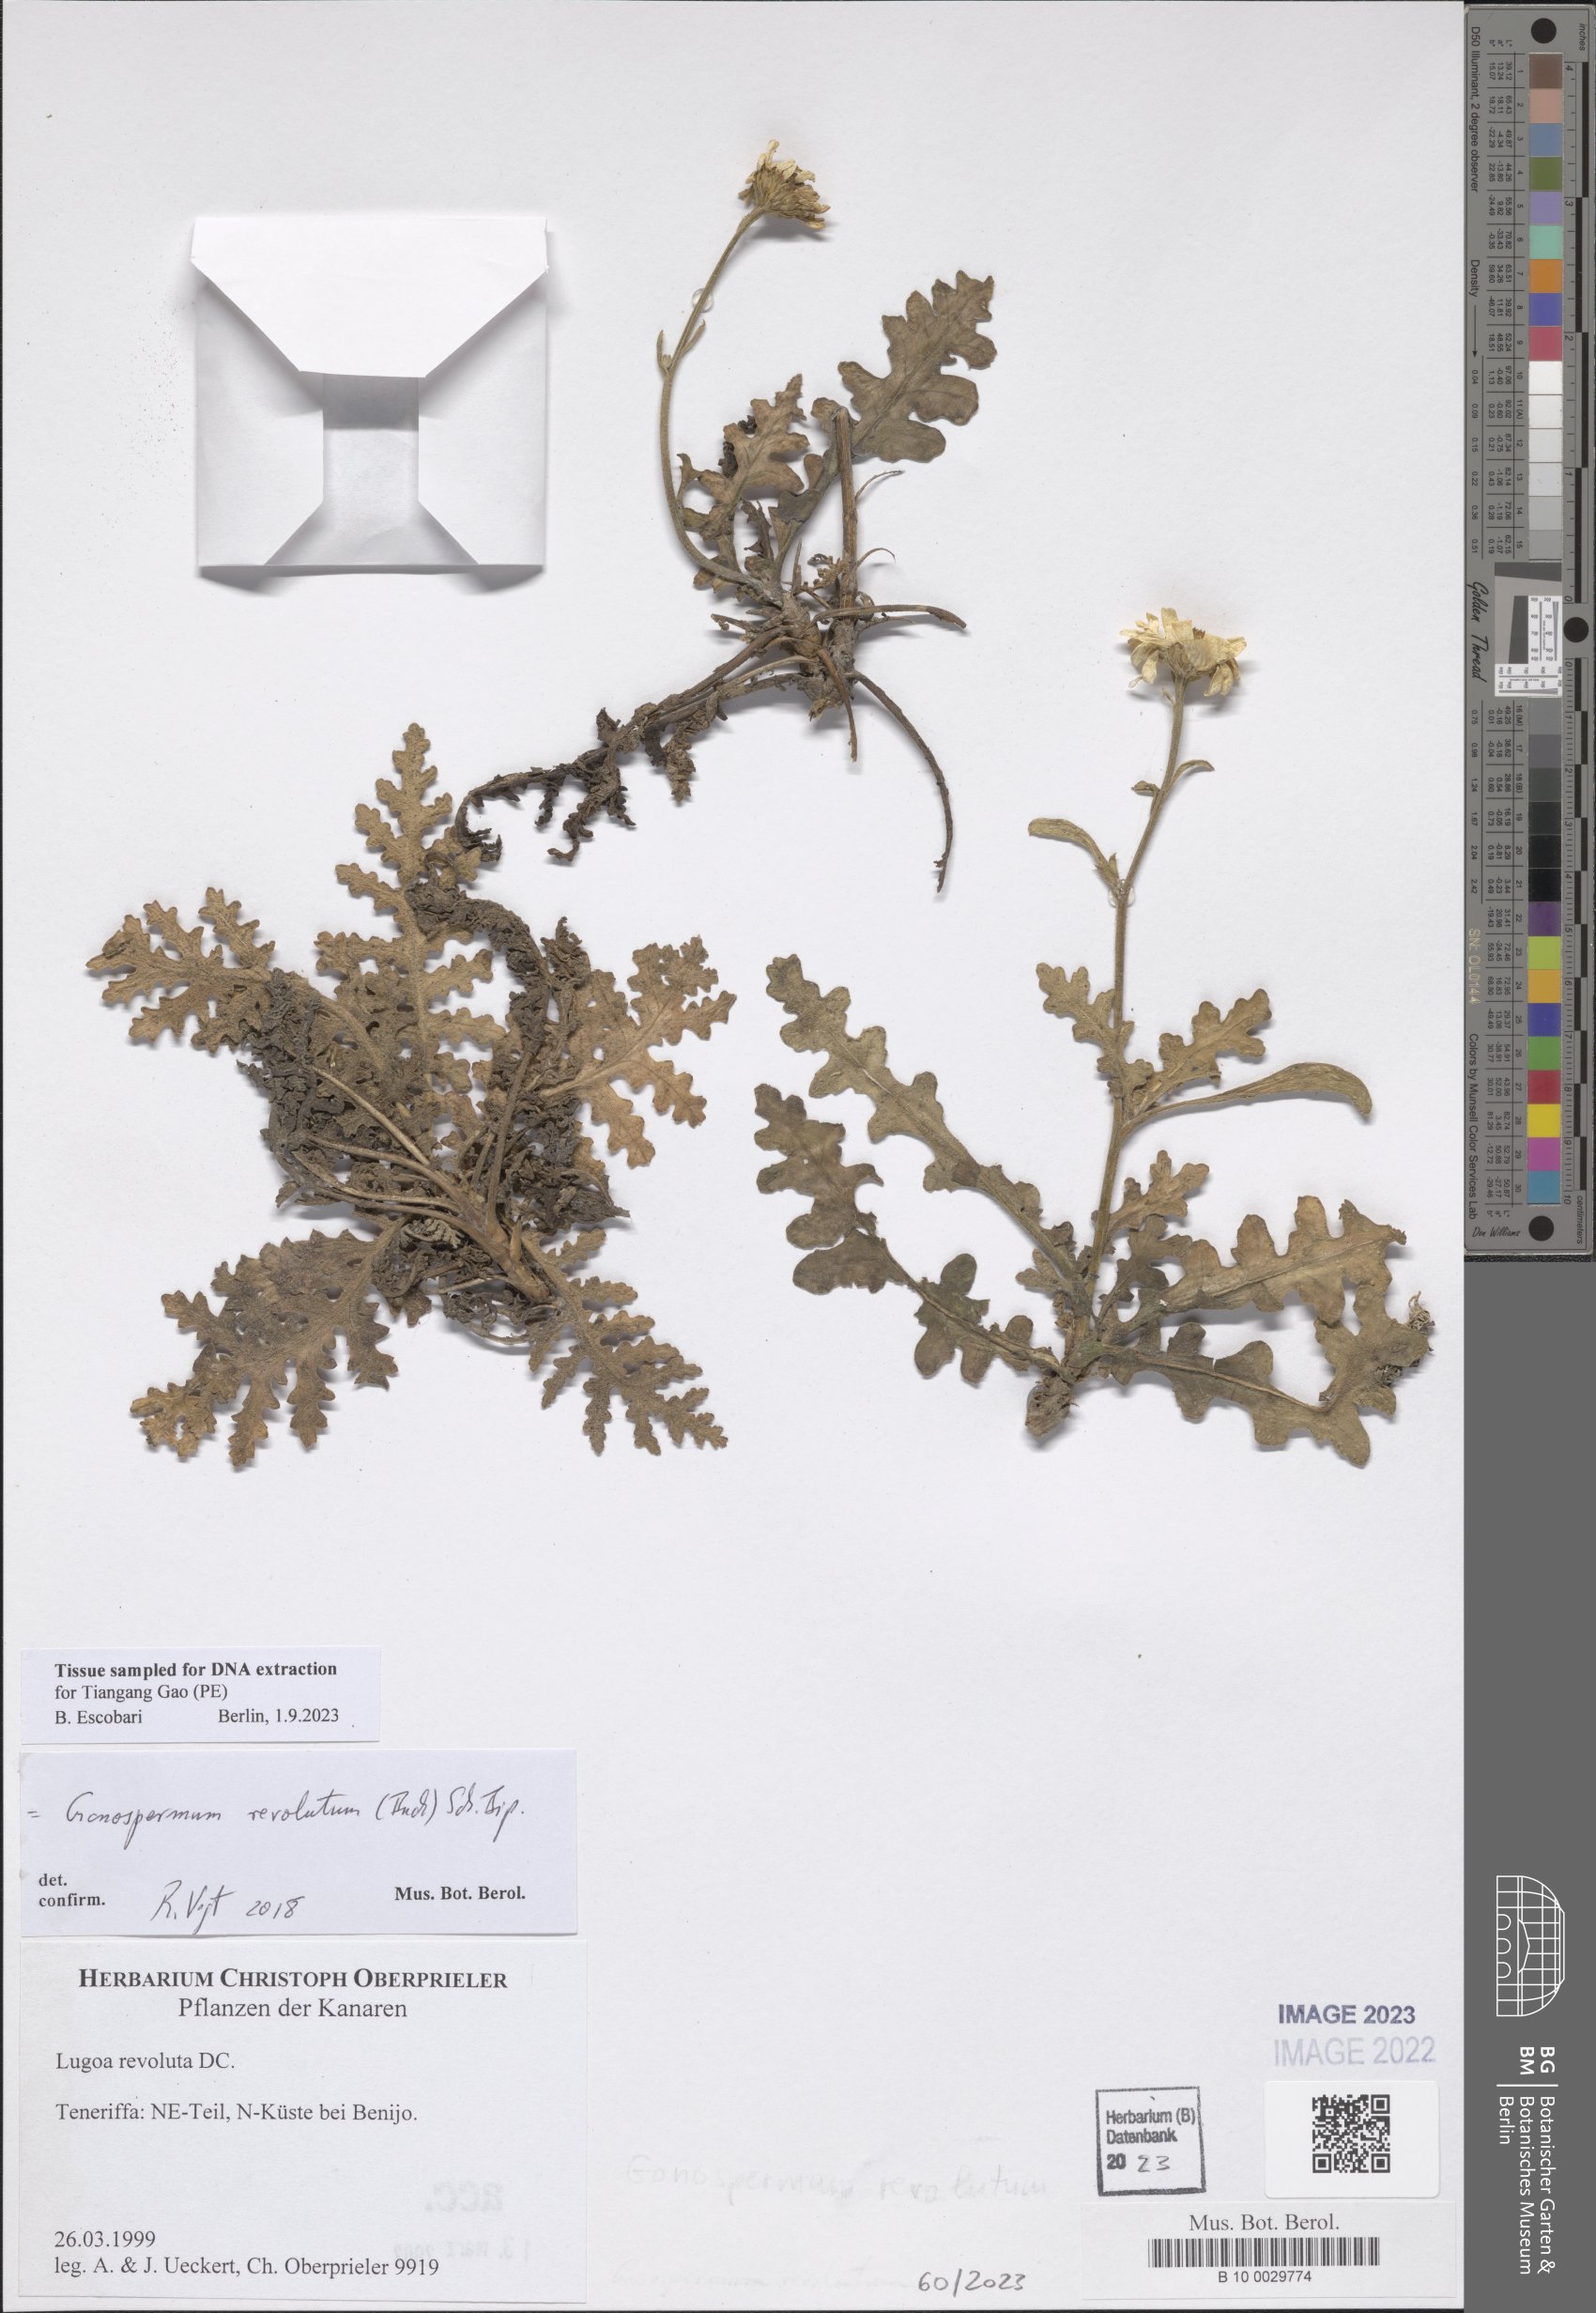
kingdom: Plantae
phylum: Tracheophyta
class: Magnoliopsida
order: Asterales
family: Asteraceae
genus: Gonospermum
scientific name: Gonospermum revolutum
